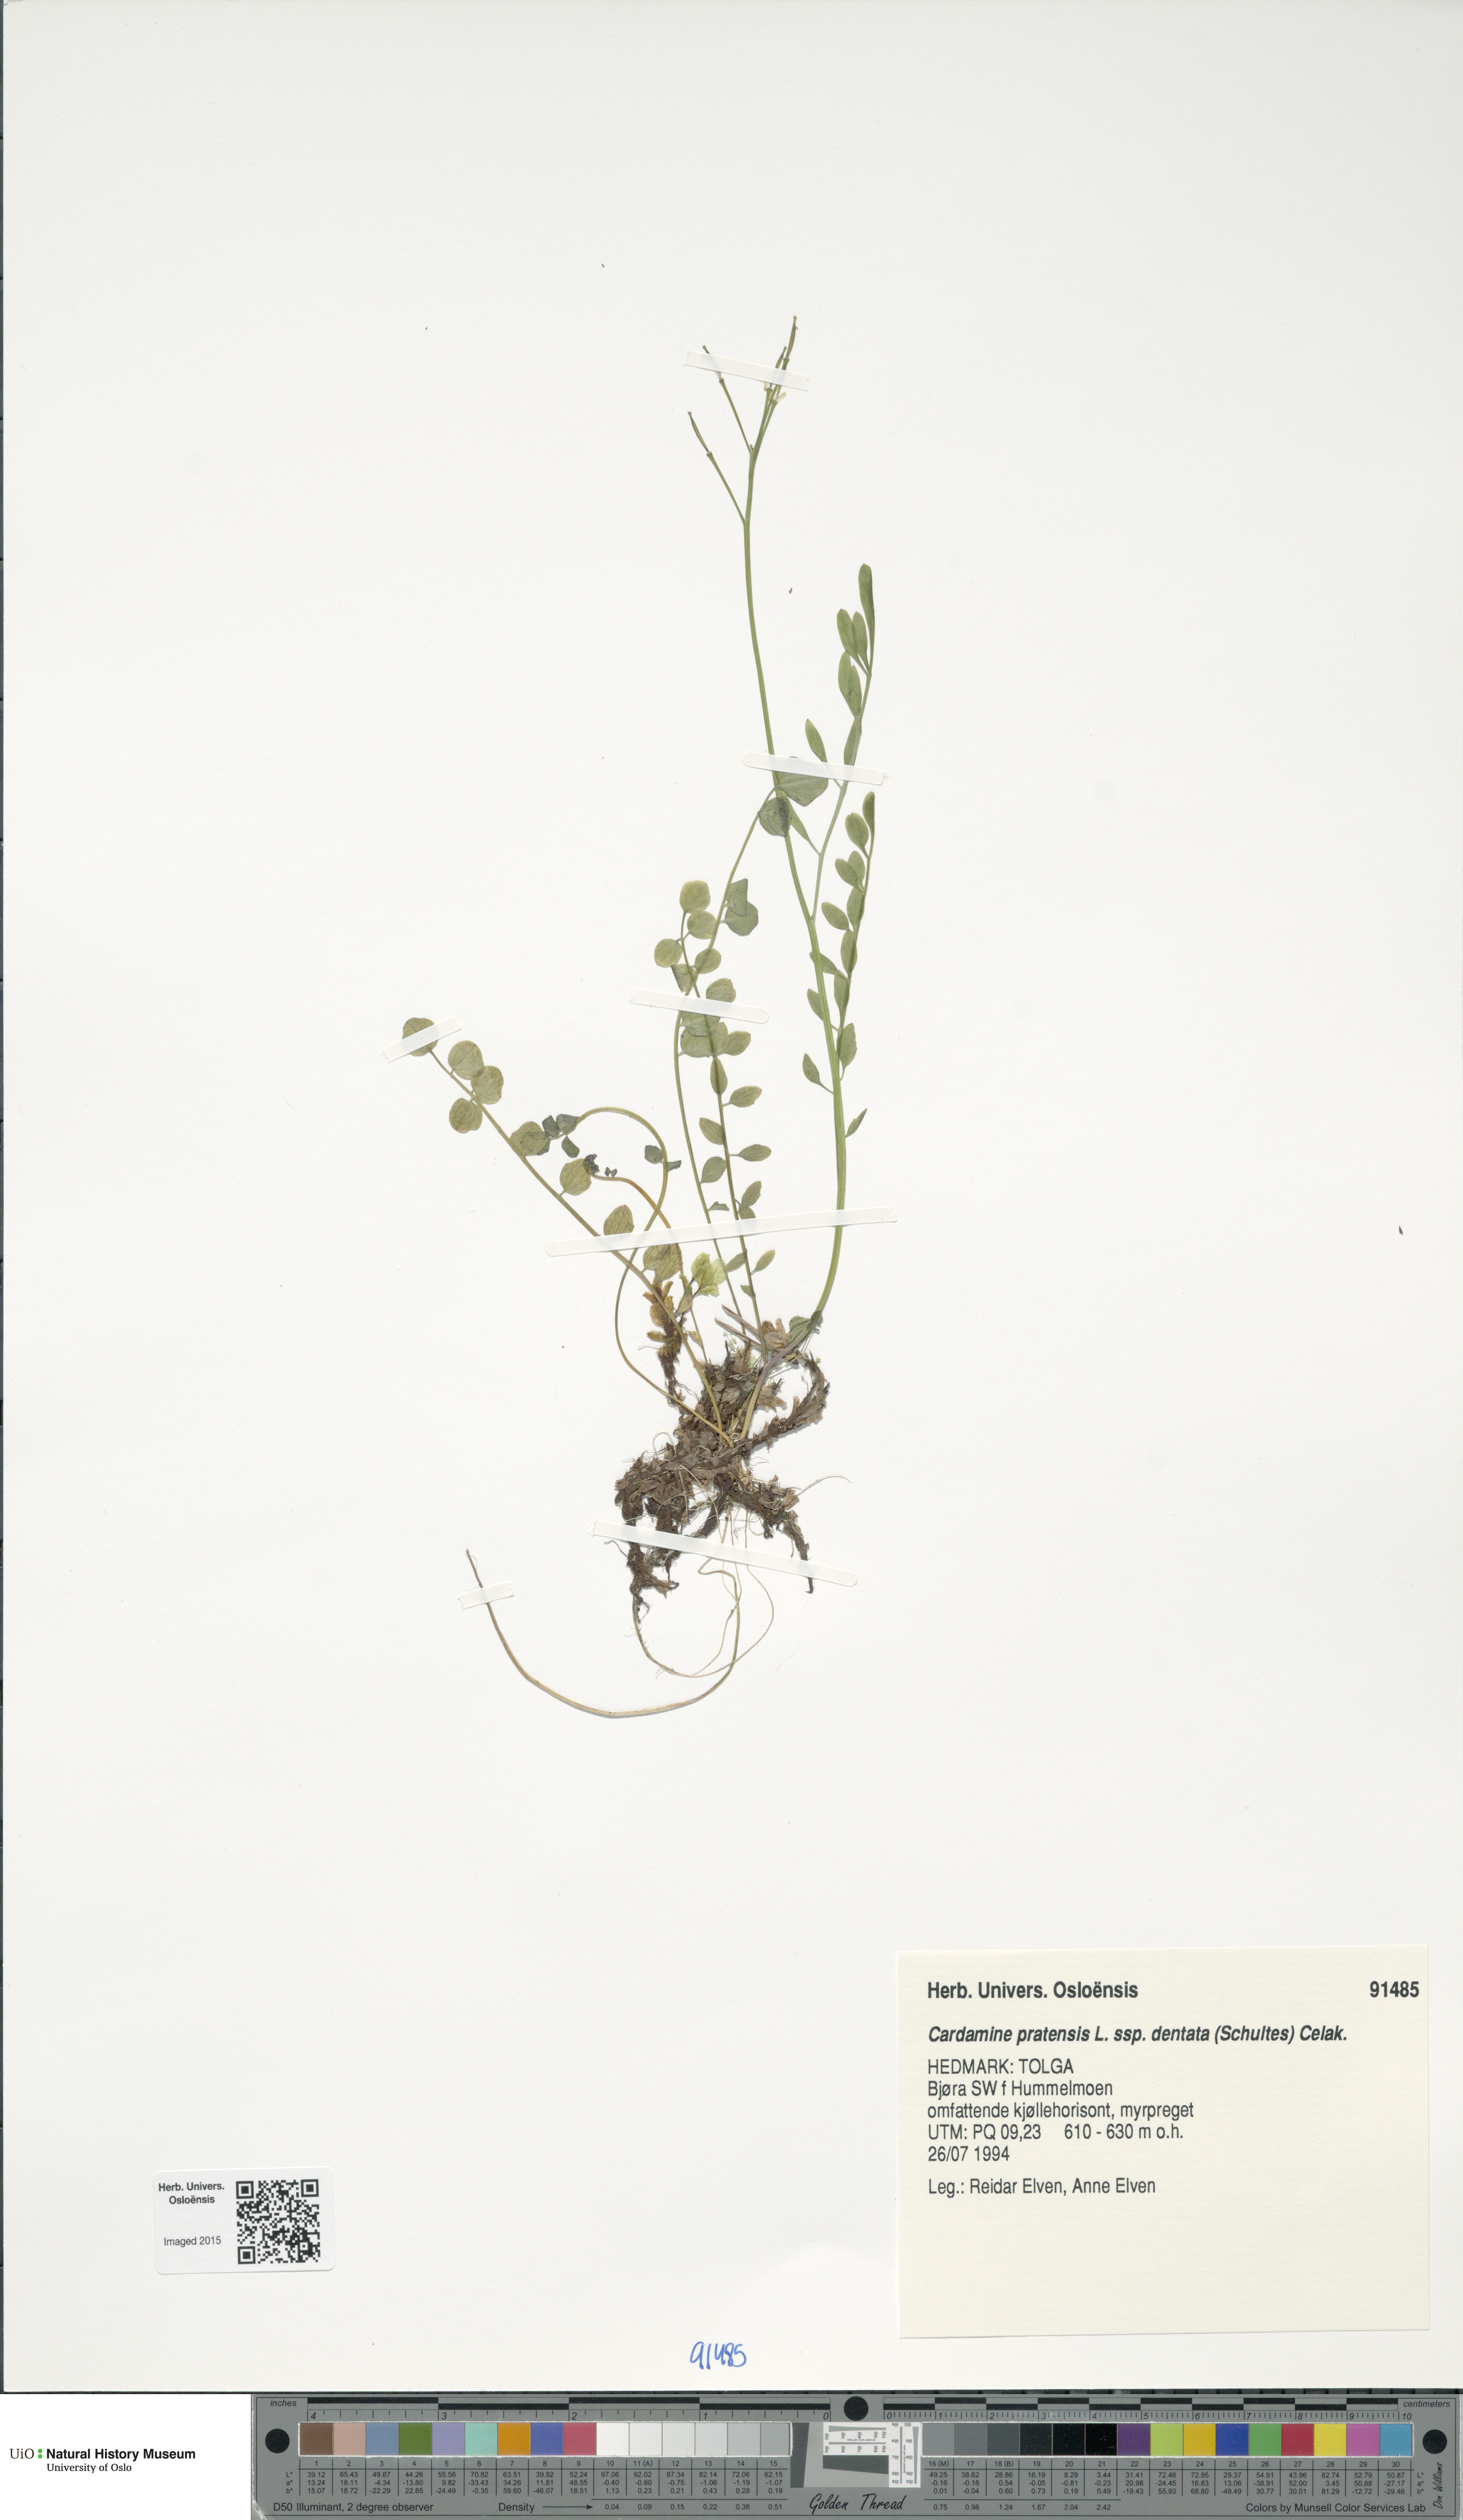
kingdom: Plantae
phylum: Tracheophyta
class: Magnoliopsida
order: Brassicales
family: Brassicaceae
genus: Cardamine
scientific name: Cardamine dentata
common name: Toothed bittercress
